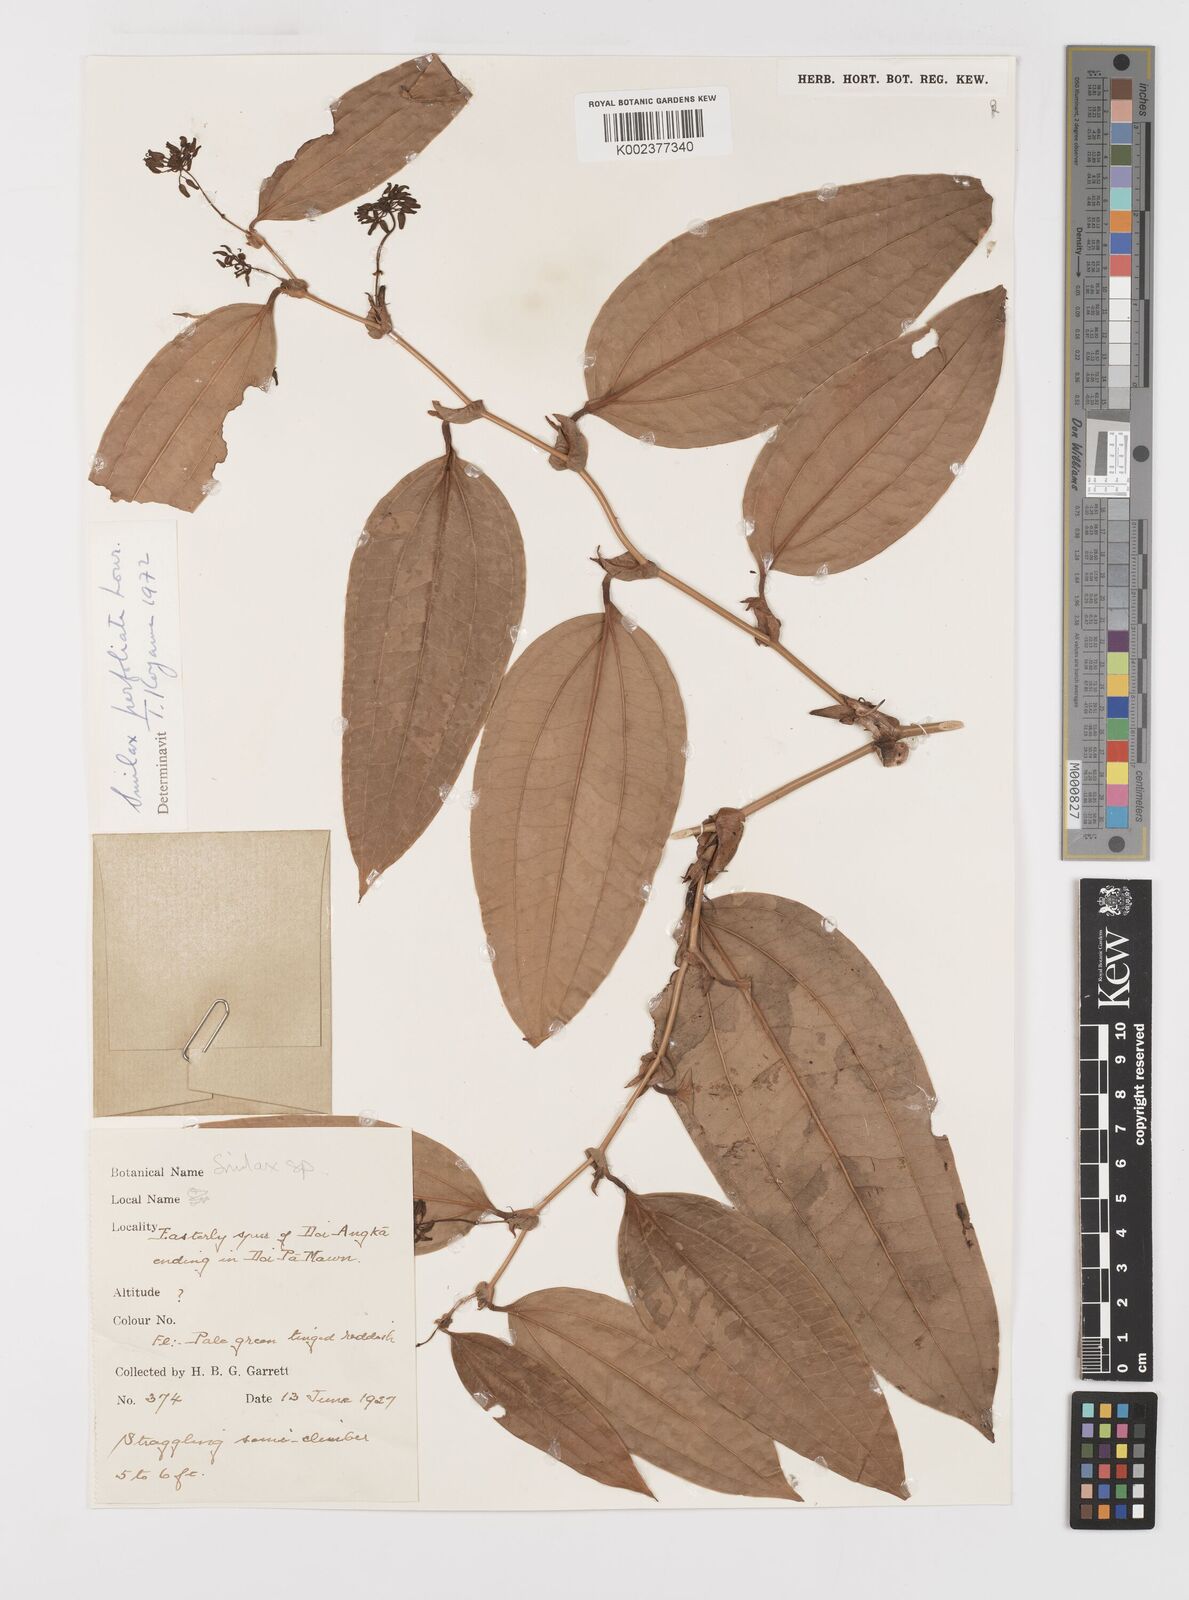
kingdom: Plantae
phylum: Tracheophyta
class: Liliopsida
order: Liliales
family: Smilacaceae
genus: Smilax
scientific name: Smilax perfoliata
